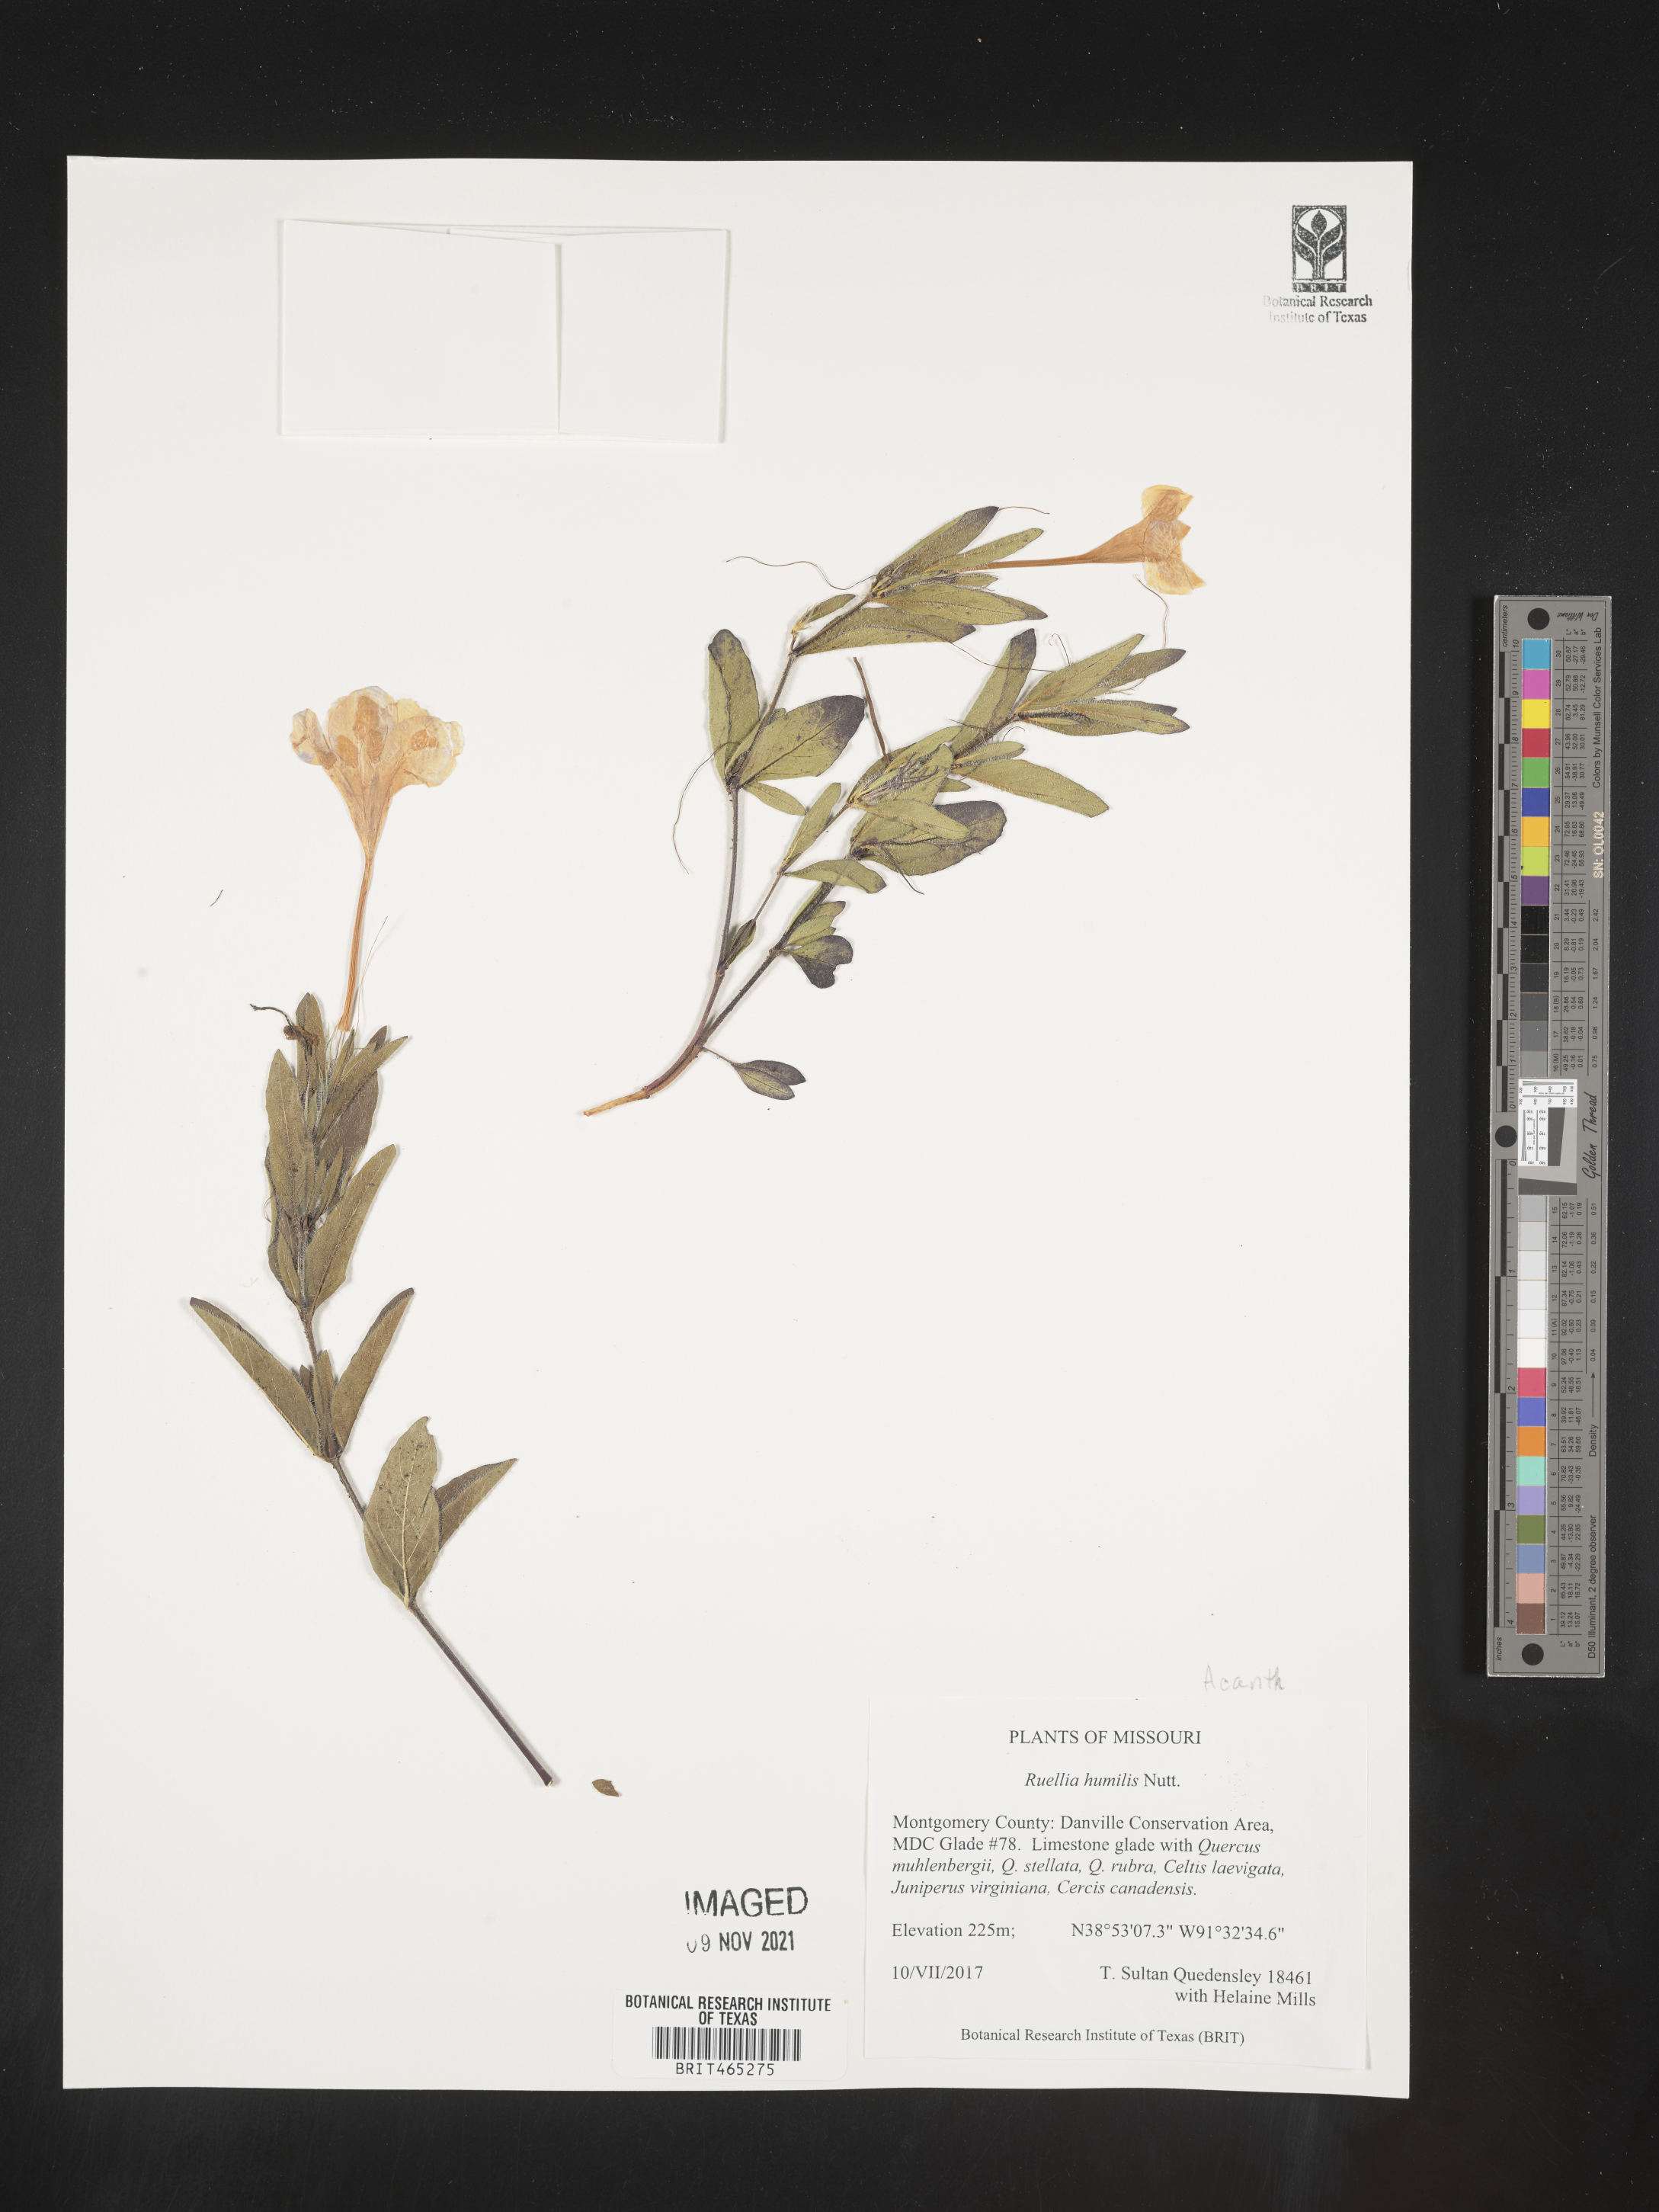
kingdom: Plantae
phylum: Tracheophyta
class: Magnoliopsida
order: Lamiales
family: Acanthaceae
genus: Ruellia
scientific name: Ruellia humilis
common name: Fringe-leaf ruellia
